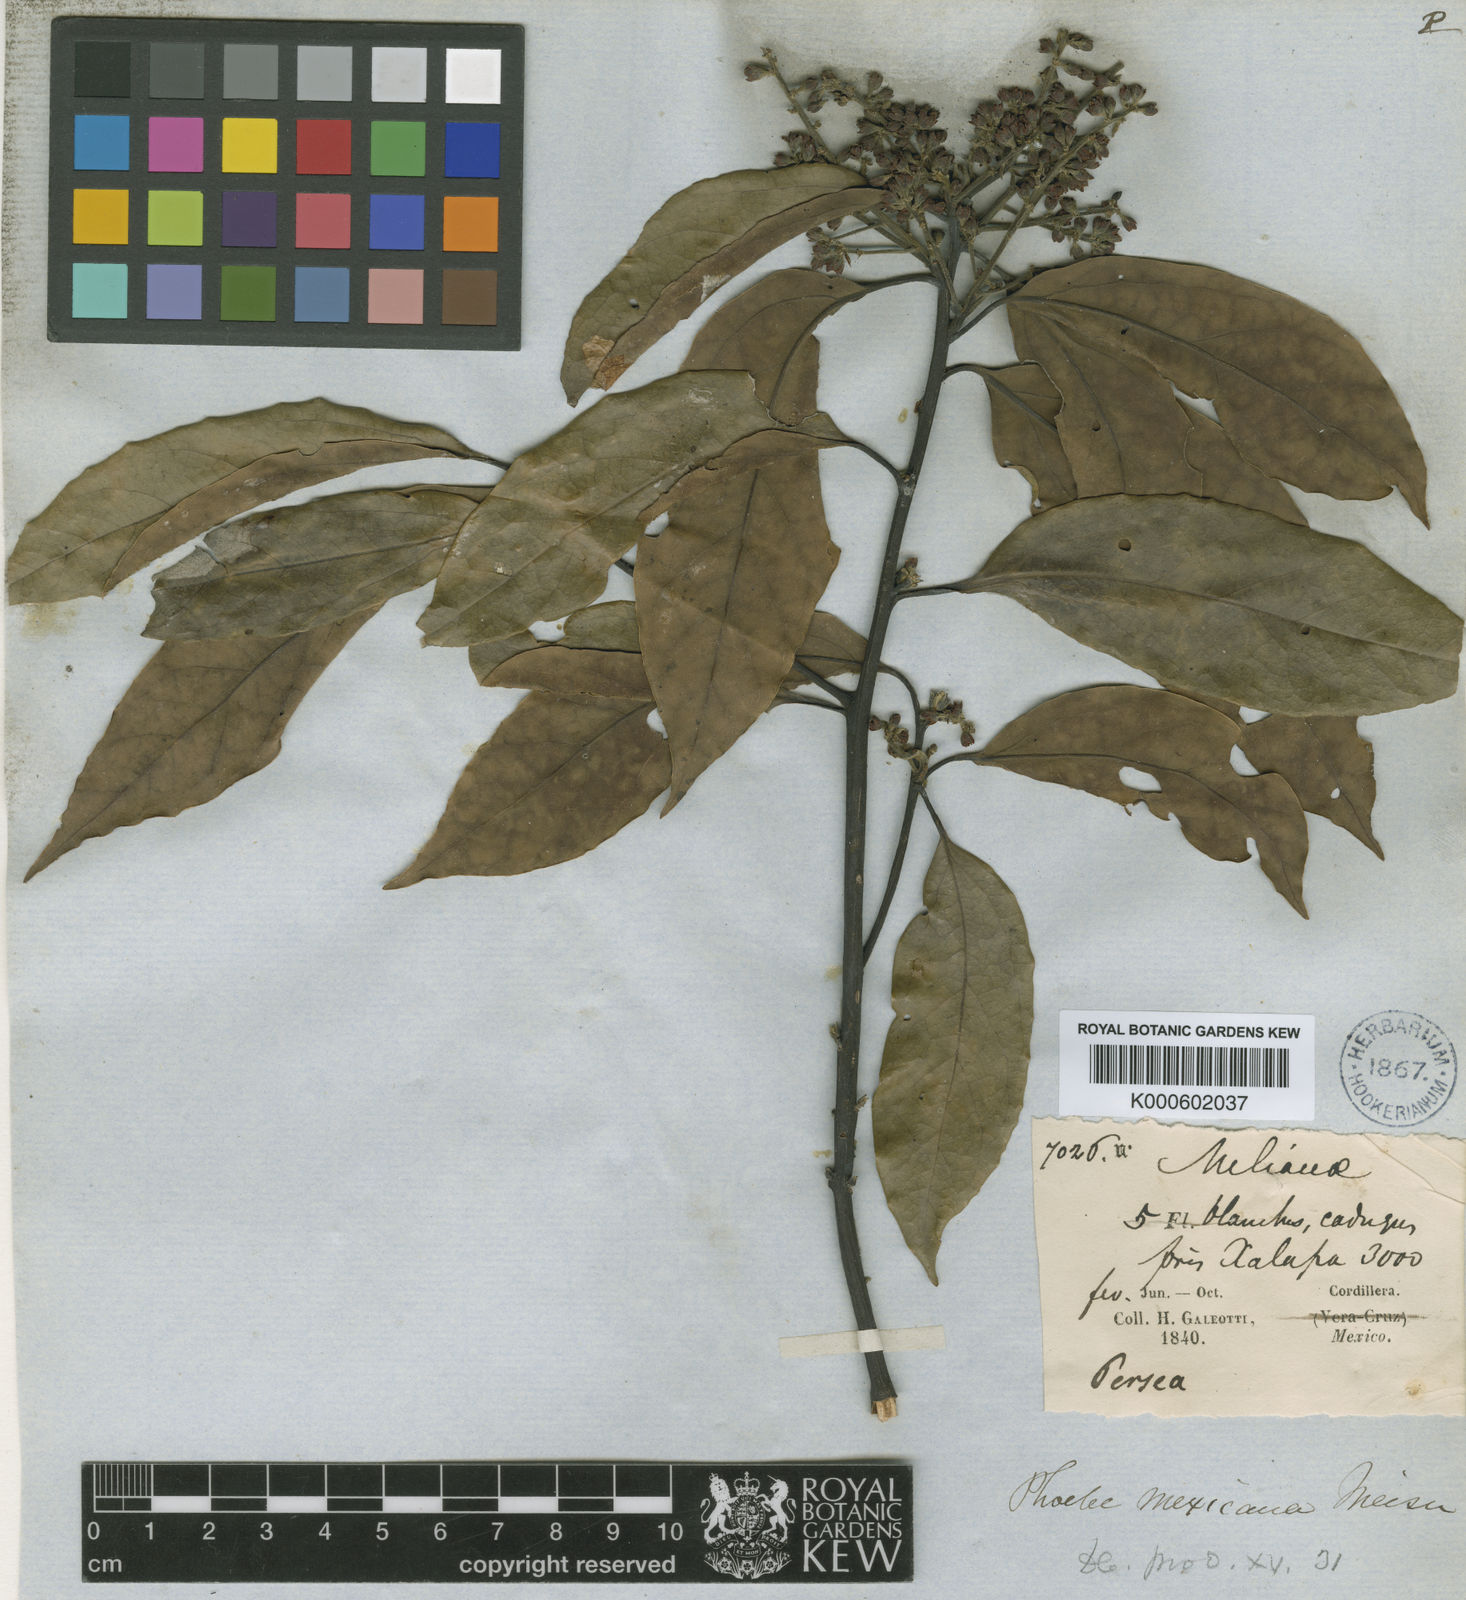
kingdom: Plantae
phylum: Tracheophyta
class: Magnoliopsida
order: Laurales
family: Lauraceae
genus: Aiouea
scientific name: Aiouea montana
